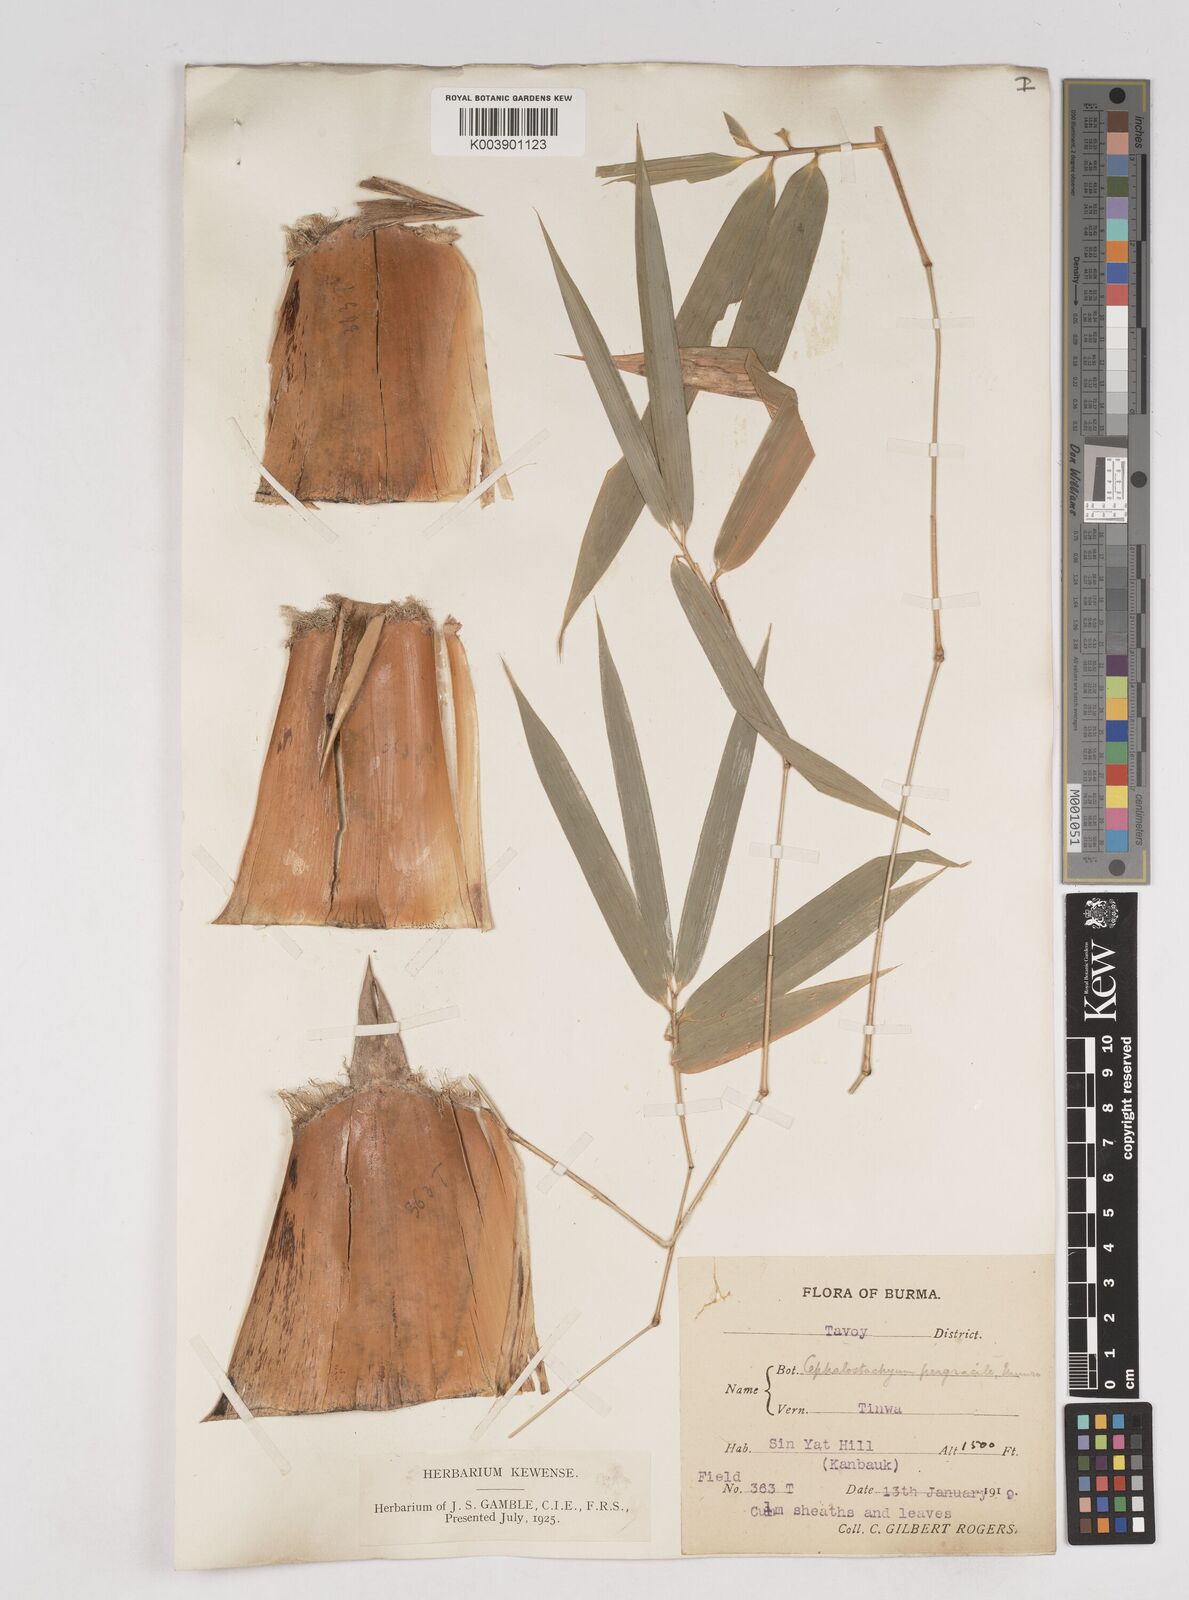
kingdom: Plantae
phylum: Tracheophyta
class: Liliopsida
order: Poales
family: Poaceae
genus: Schizostachyum
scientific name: Schizostachyum pergracile
